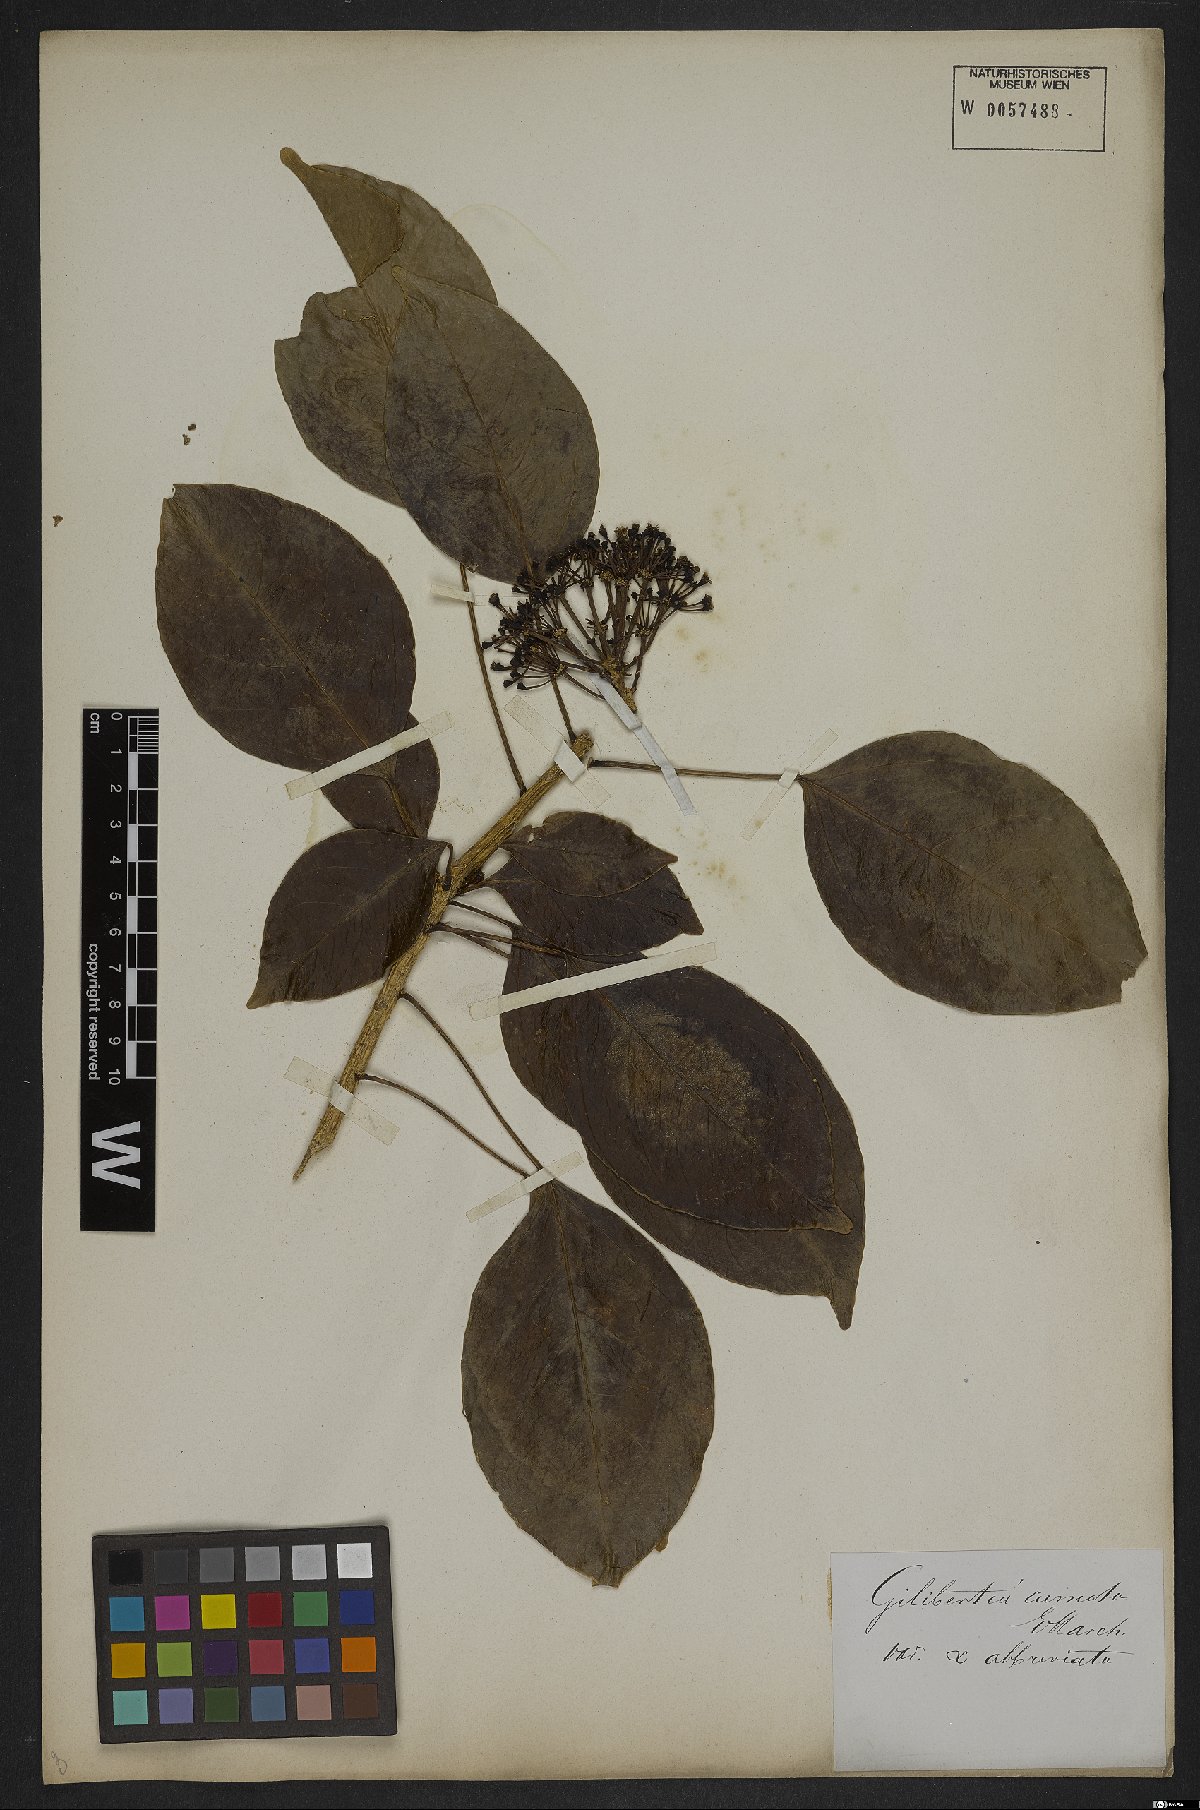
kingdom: Plantae
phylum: Tracheophyta
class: Magnoliopsida
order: Apiales
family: Araliaceae
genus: Dendropanax
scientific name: Dendropanax cuneatus
